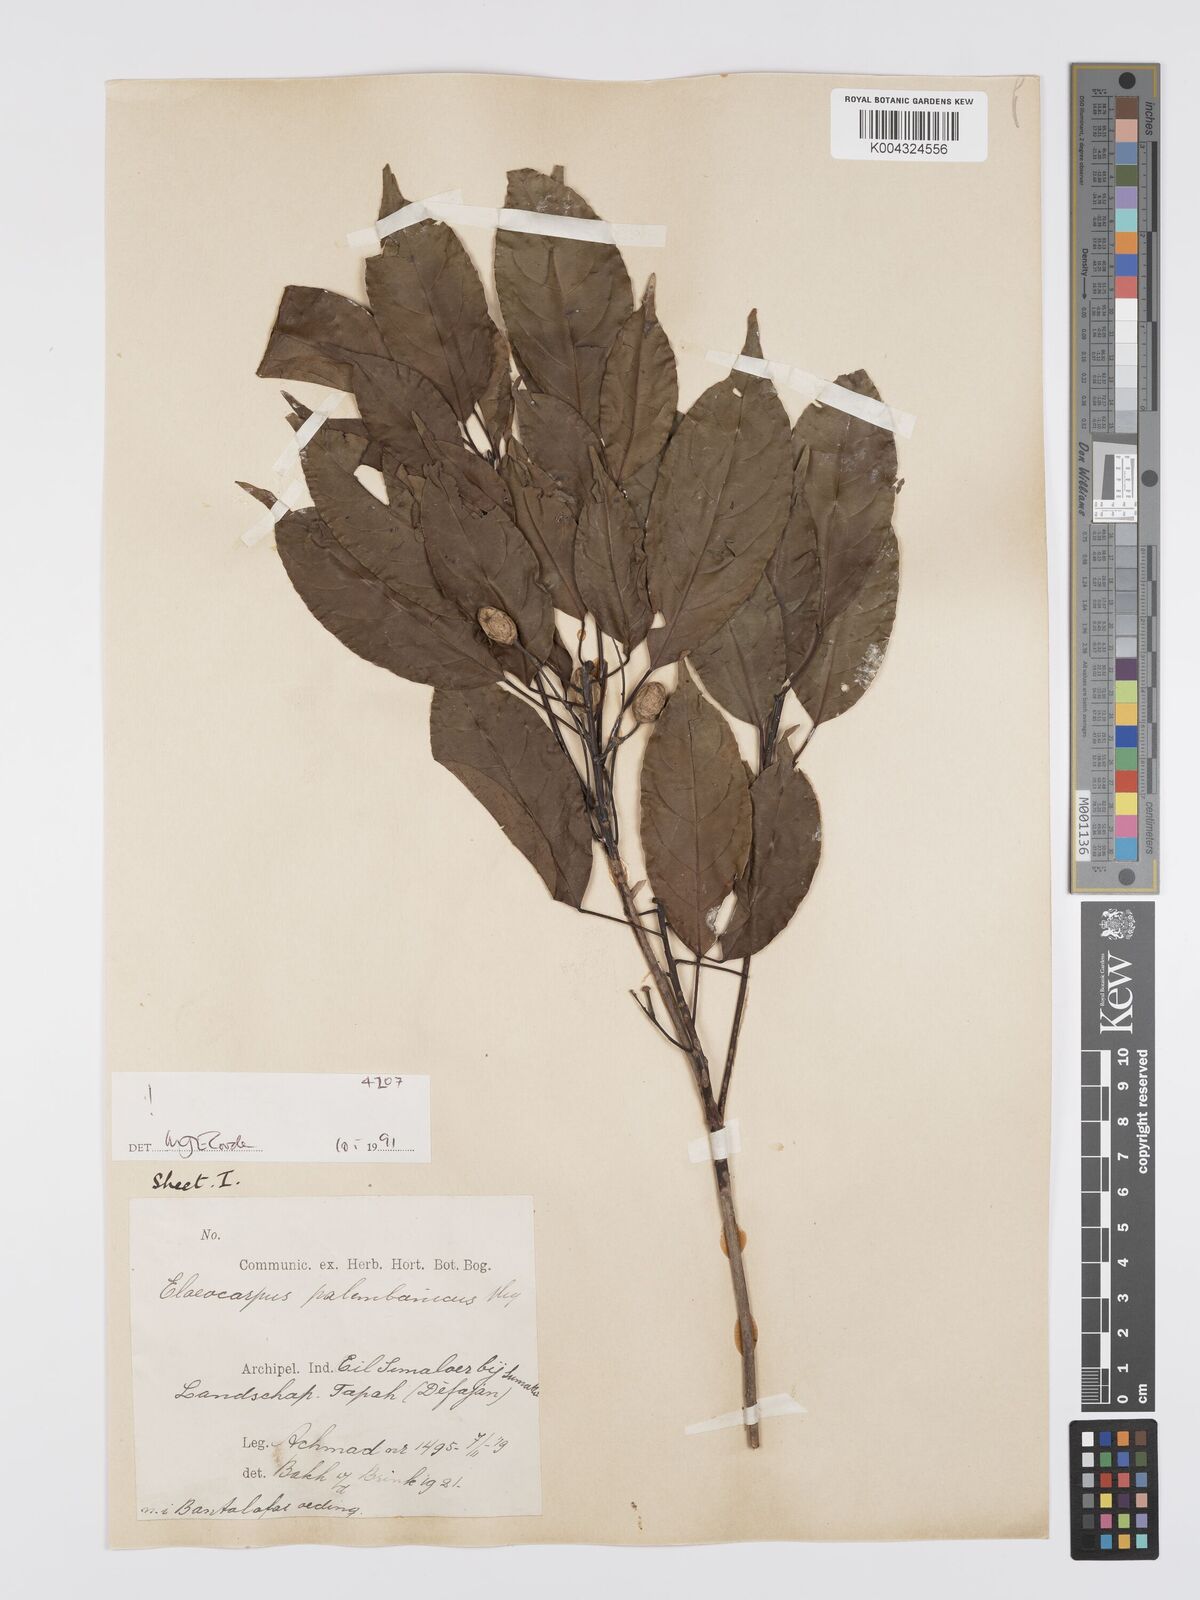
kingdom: Plantae
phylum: Tracheophyta
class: Magnoliopsida
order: Oxalidales
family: Elaeocarpaceae
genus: Elaeocarpus
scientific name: Elaeocarpus palembanicus
